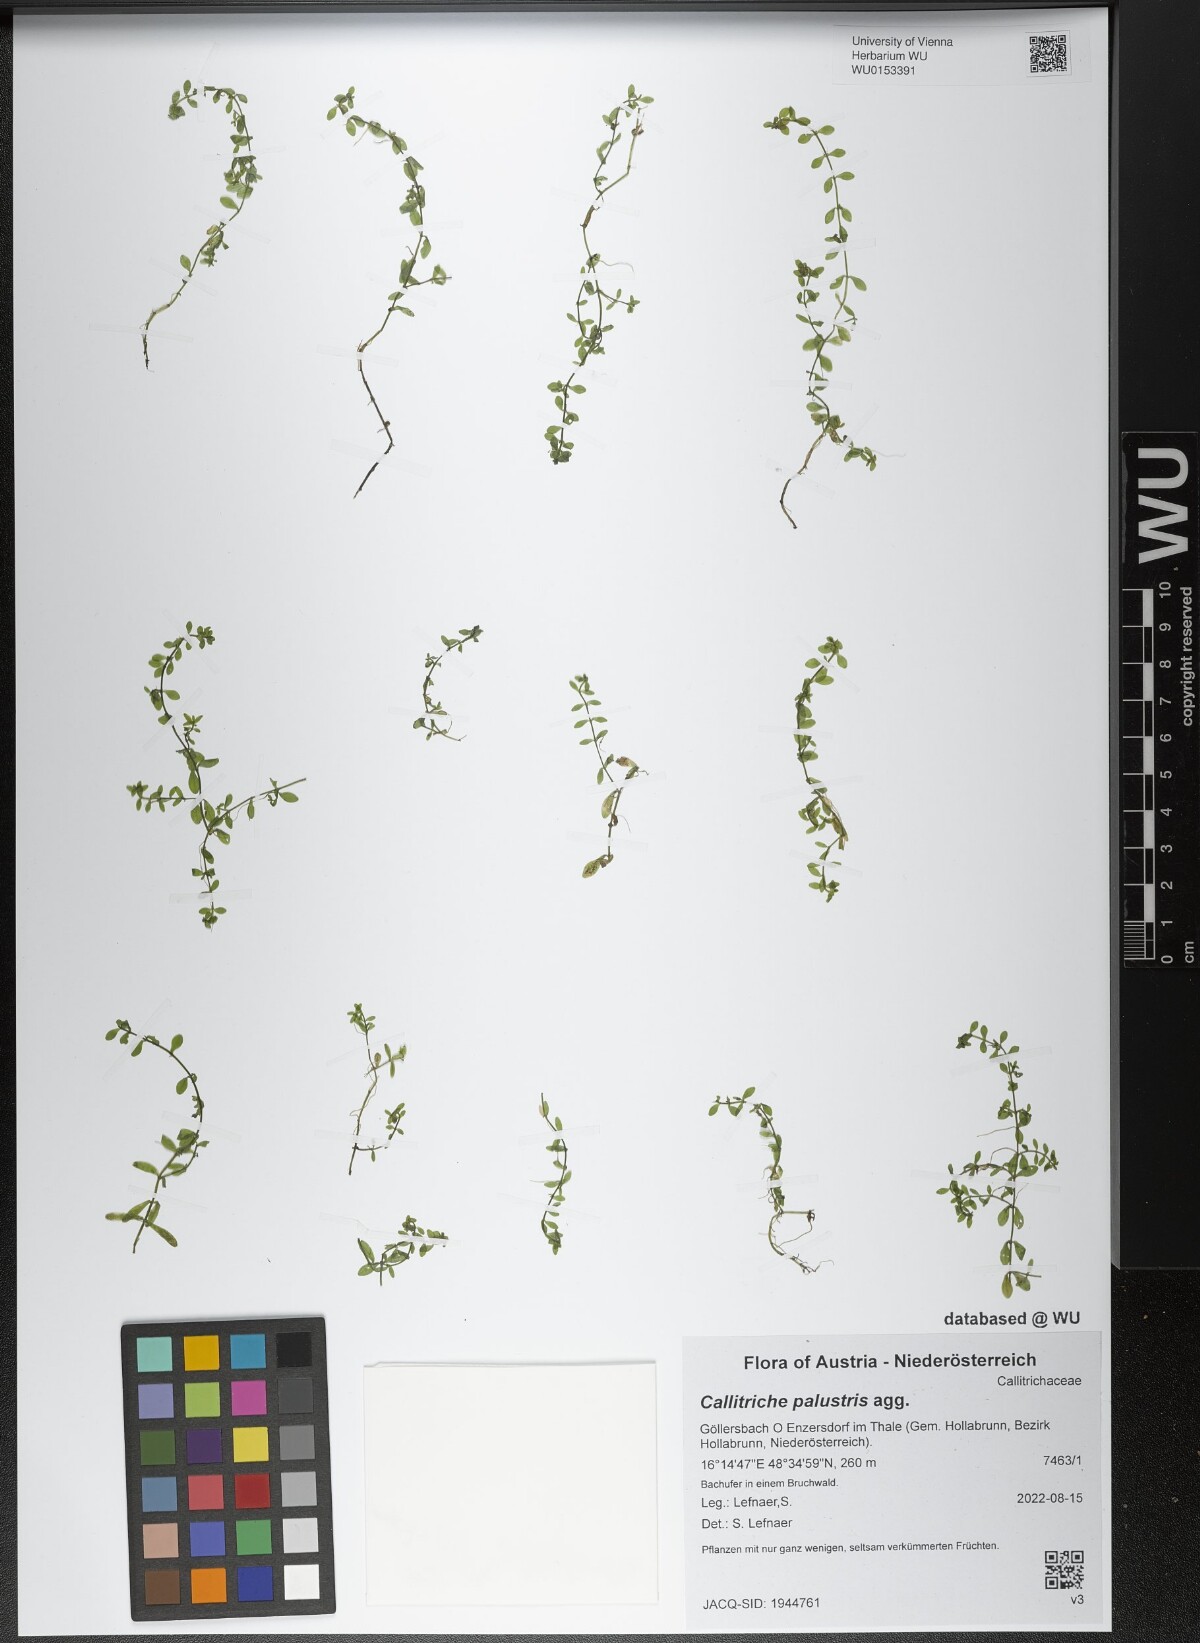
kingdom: Plantae
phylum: Tracheophyta
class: Magnoliopsida
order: Lamiales
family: Plantaginaceae
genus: Callitriche
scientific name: Callitriche palustris
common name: Spring water-starwort
